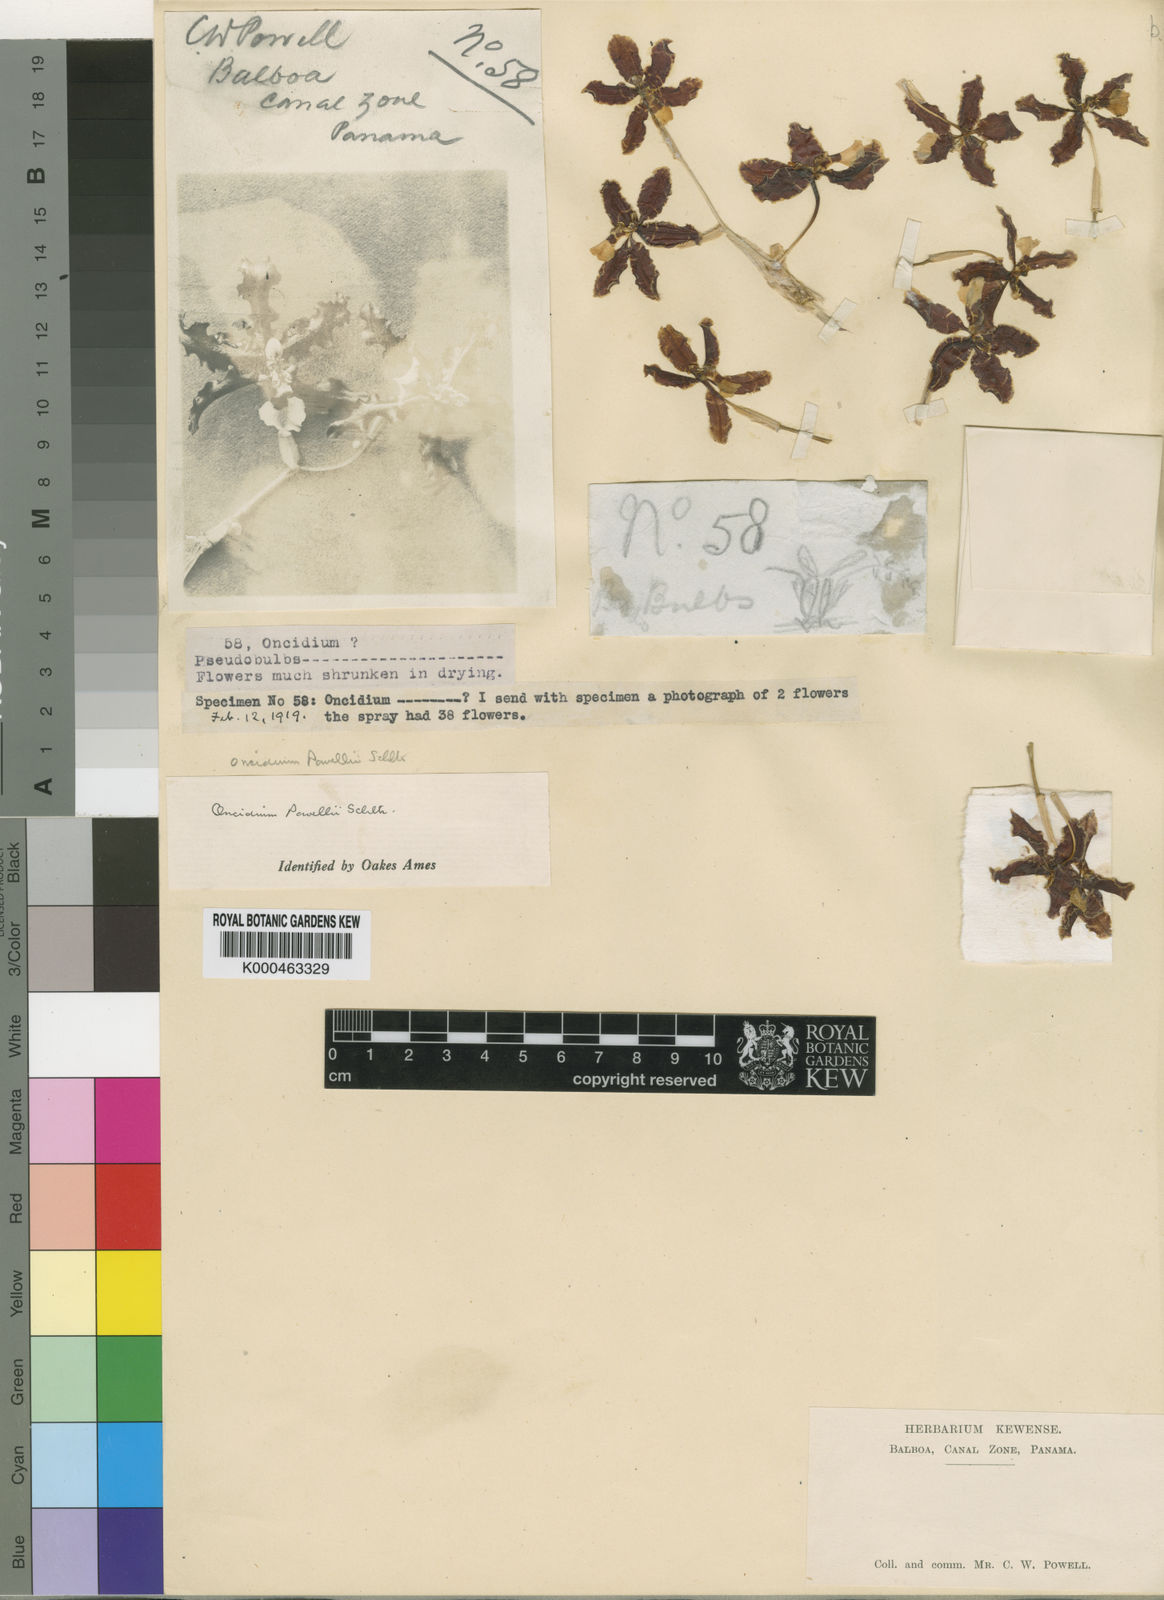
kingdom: Plantae
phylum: Tracheophyta
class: Liliopsida
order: Asparagales
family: Orchidaceae
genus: Oncidium
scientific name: Oncidium anthocrene
